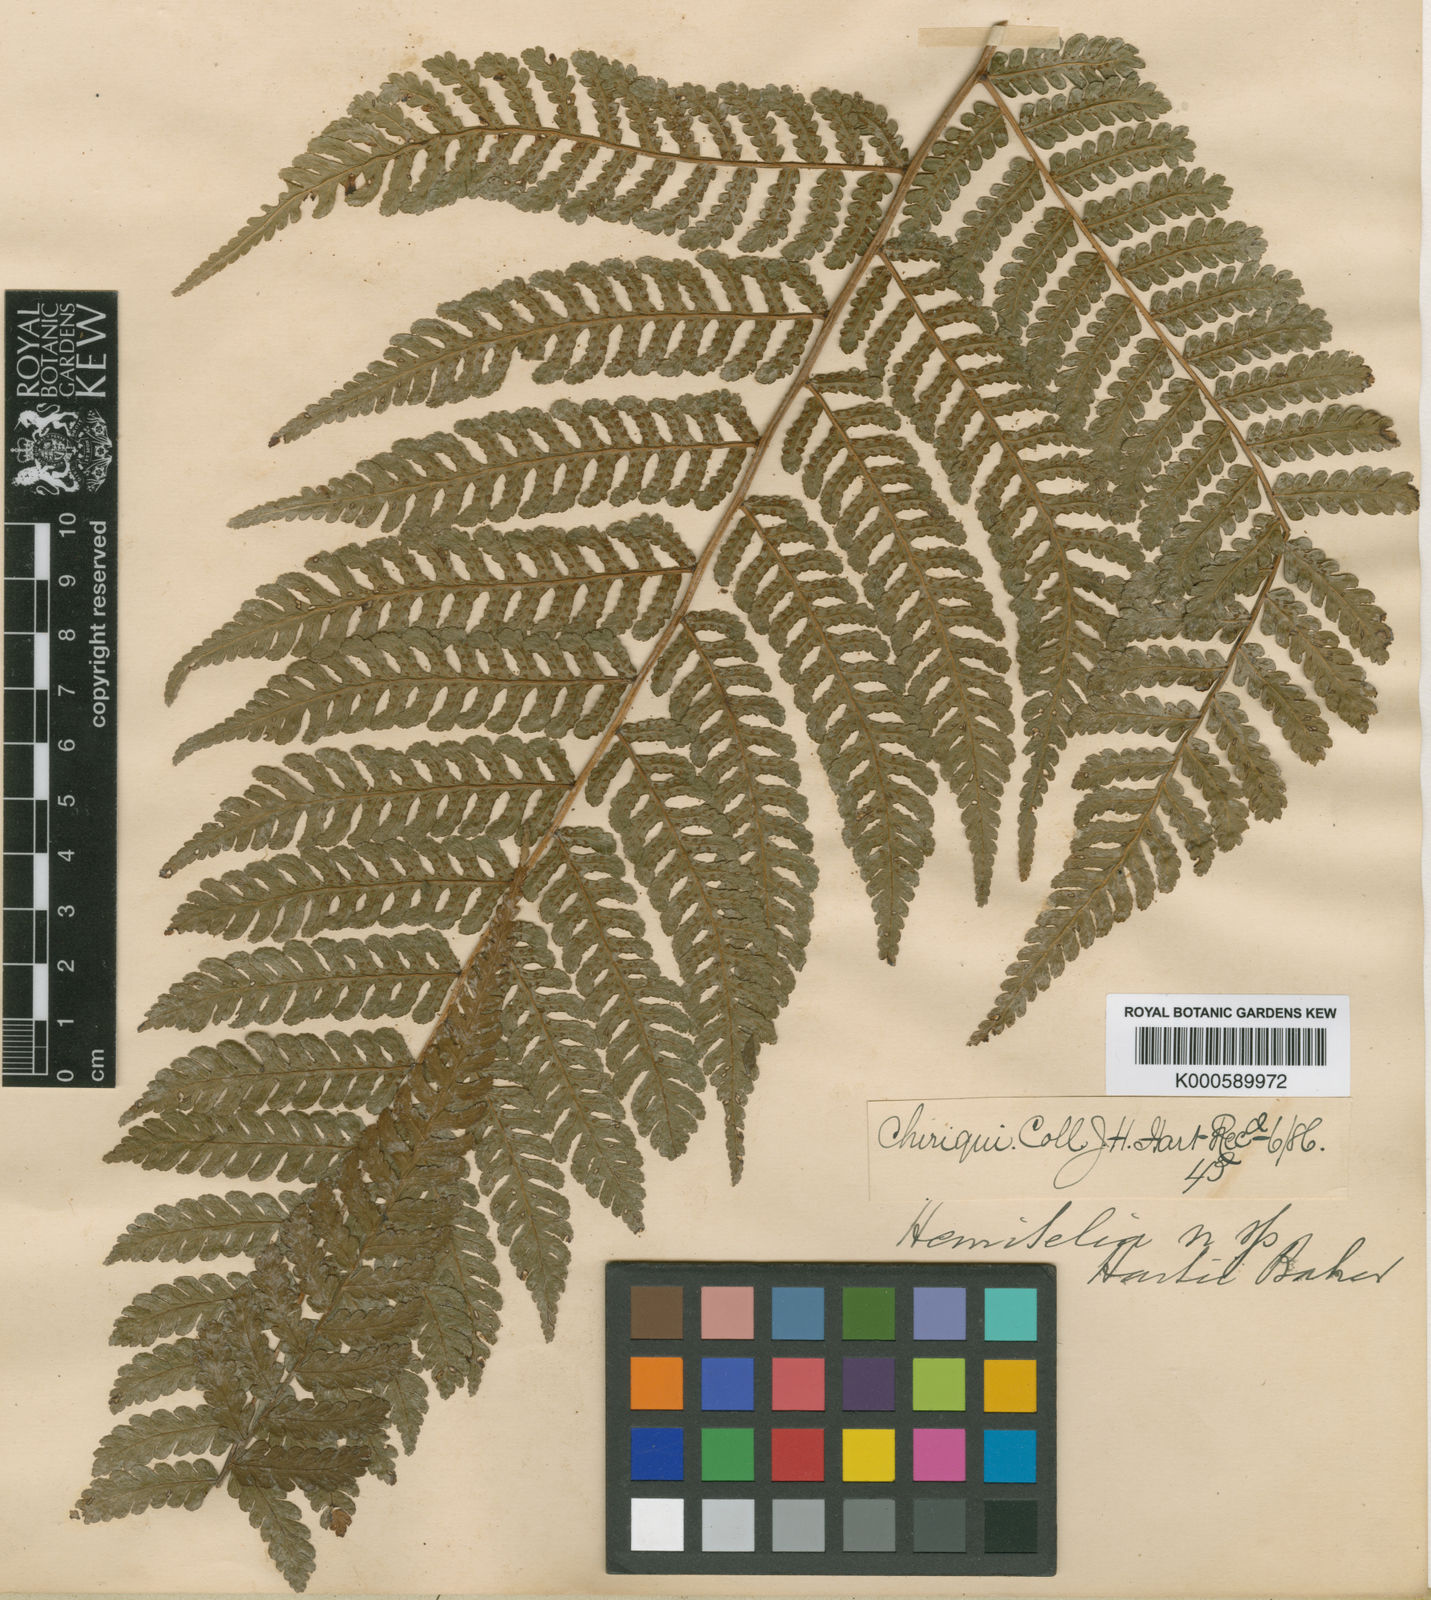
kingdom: Plantae
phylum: Tracheophyta
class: Polypodiopsida
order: Cyatheales
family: Cyatheaceae
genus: Cyathea
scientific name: Cyathea multiflora
